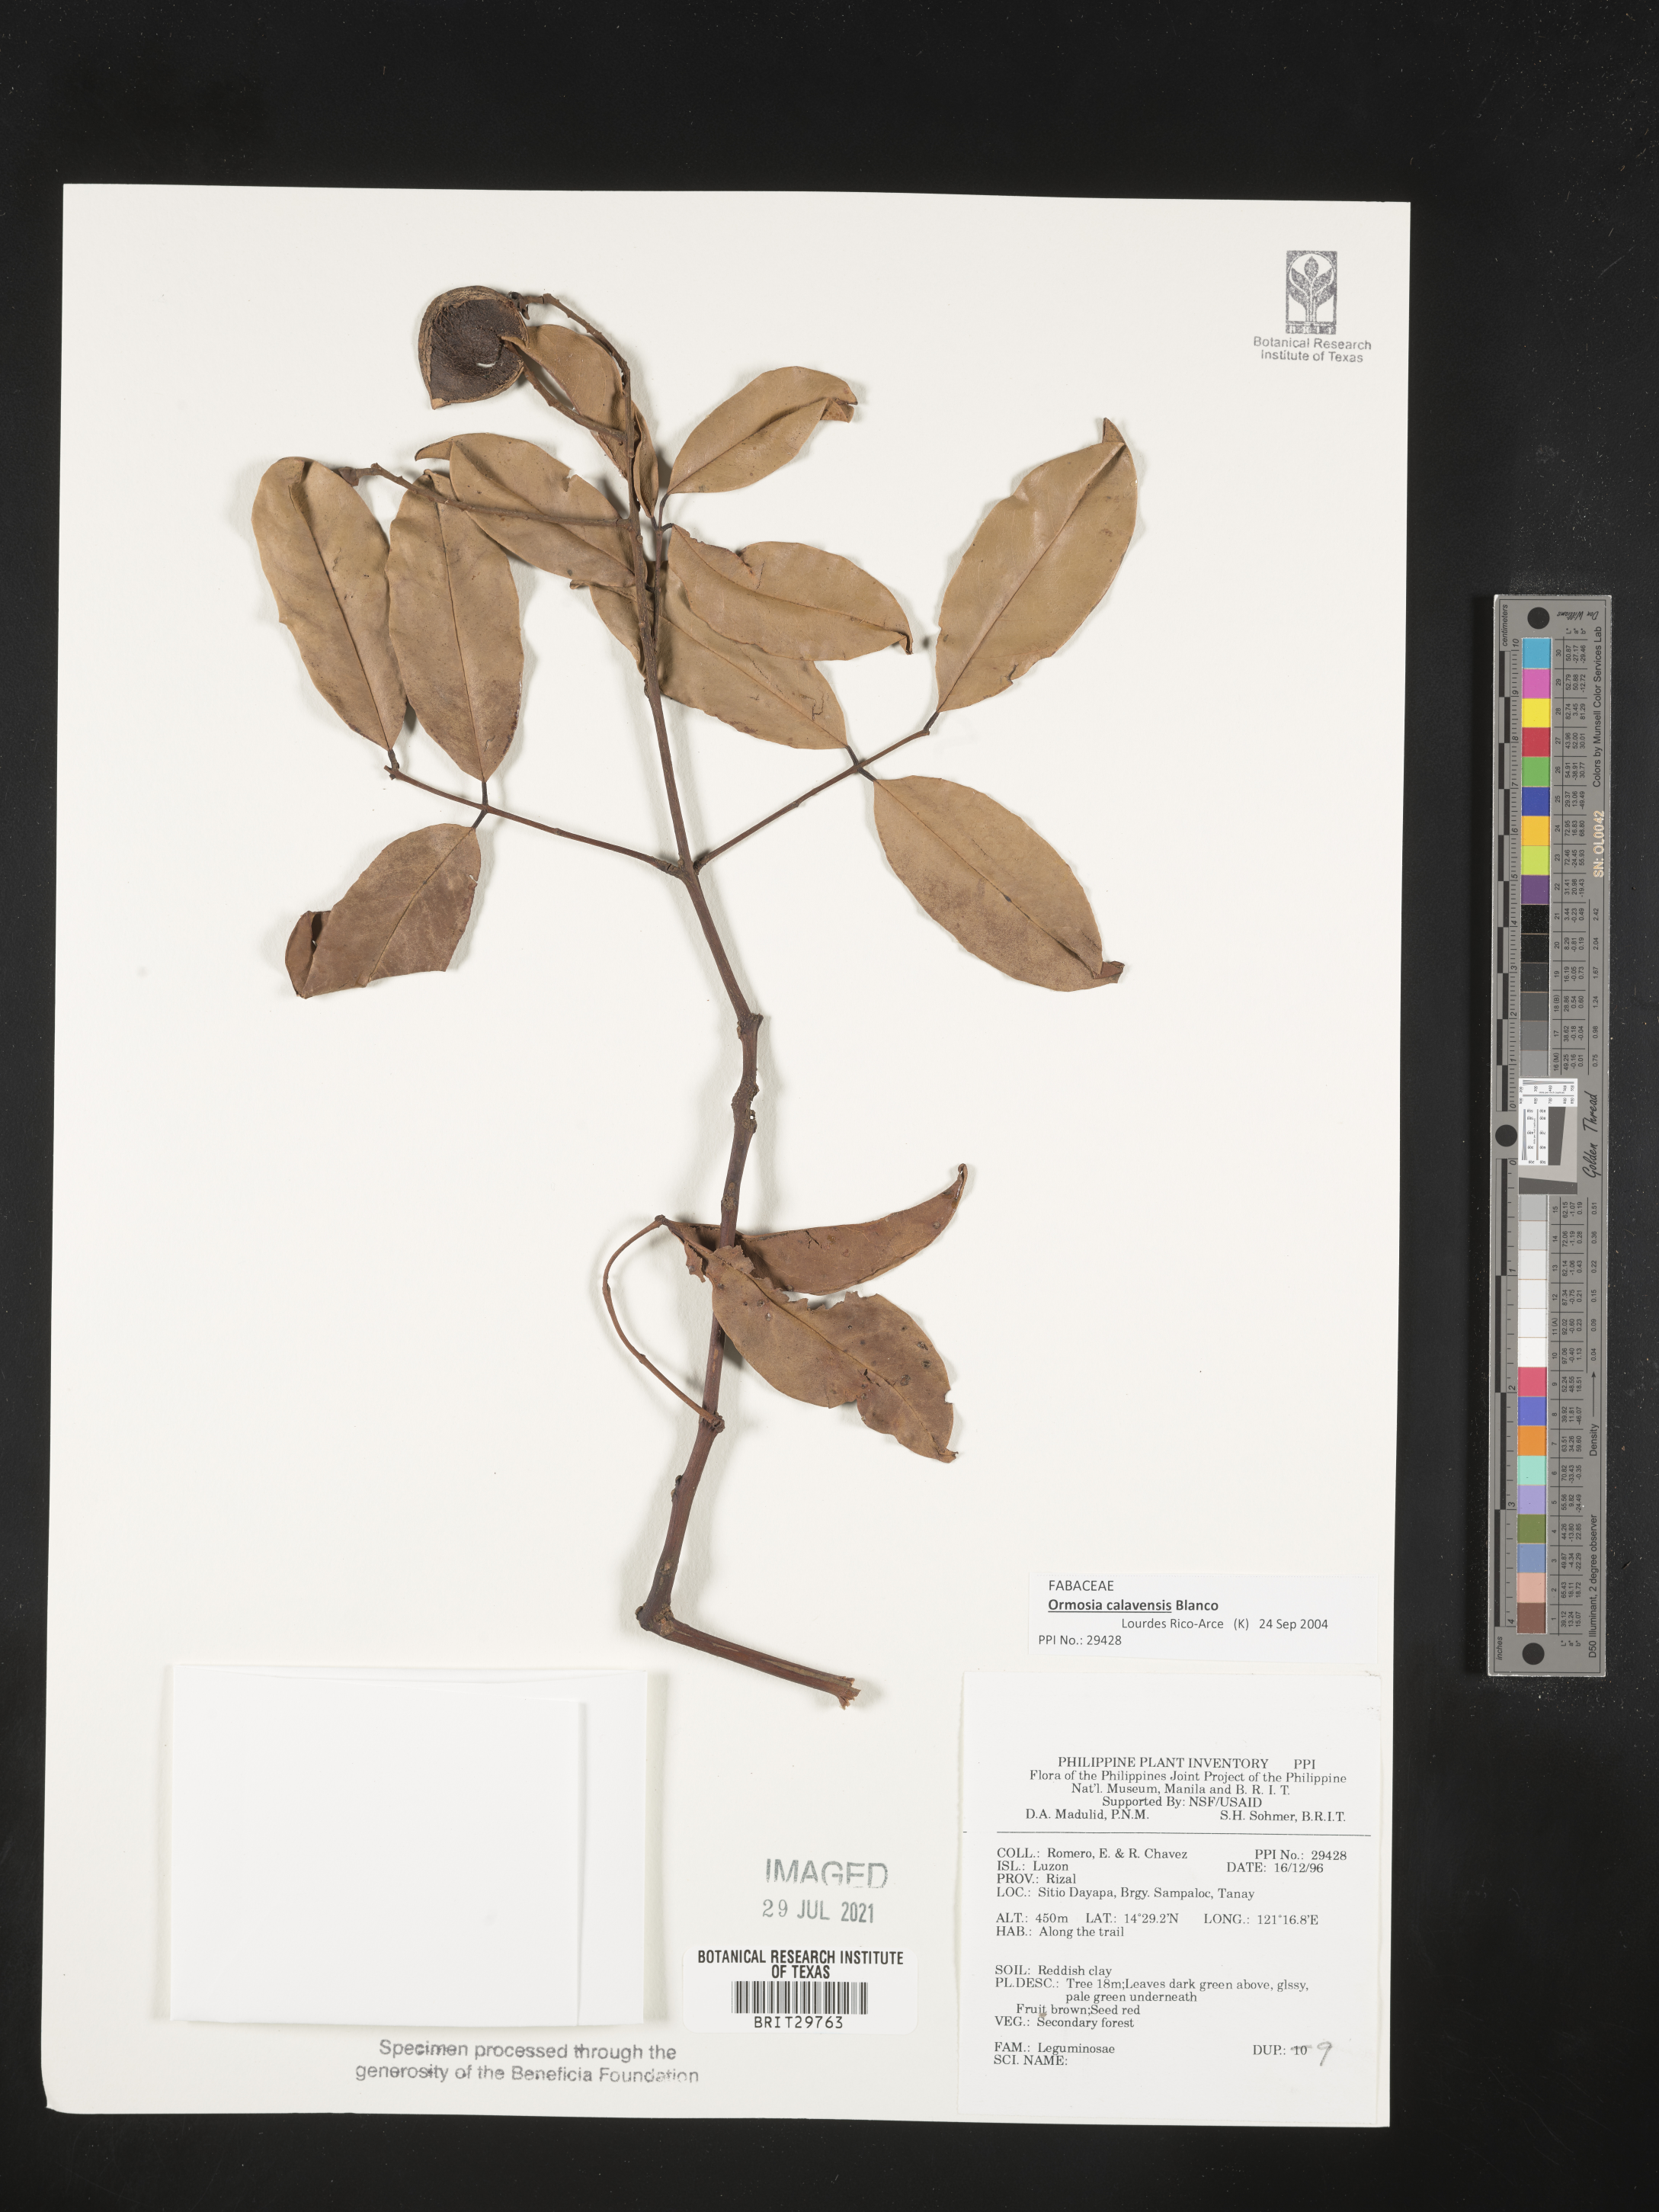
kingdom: Plantae
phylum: Tracheophyta
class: Magnoliopsida
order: Fabales
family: Fabaceae
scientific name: Fabaceae
